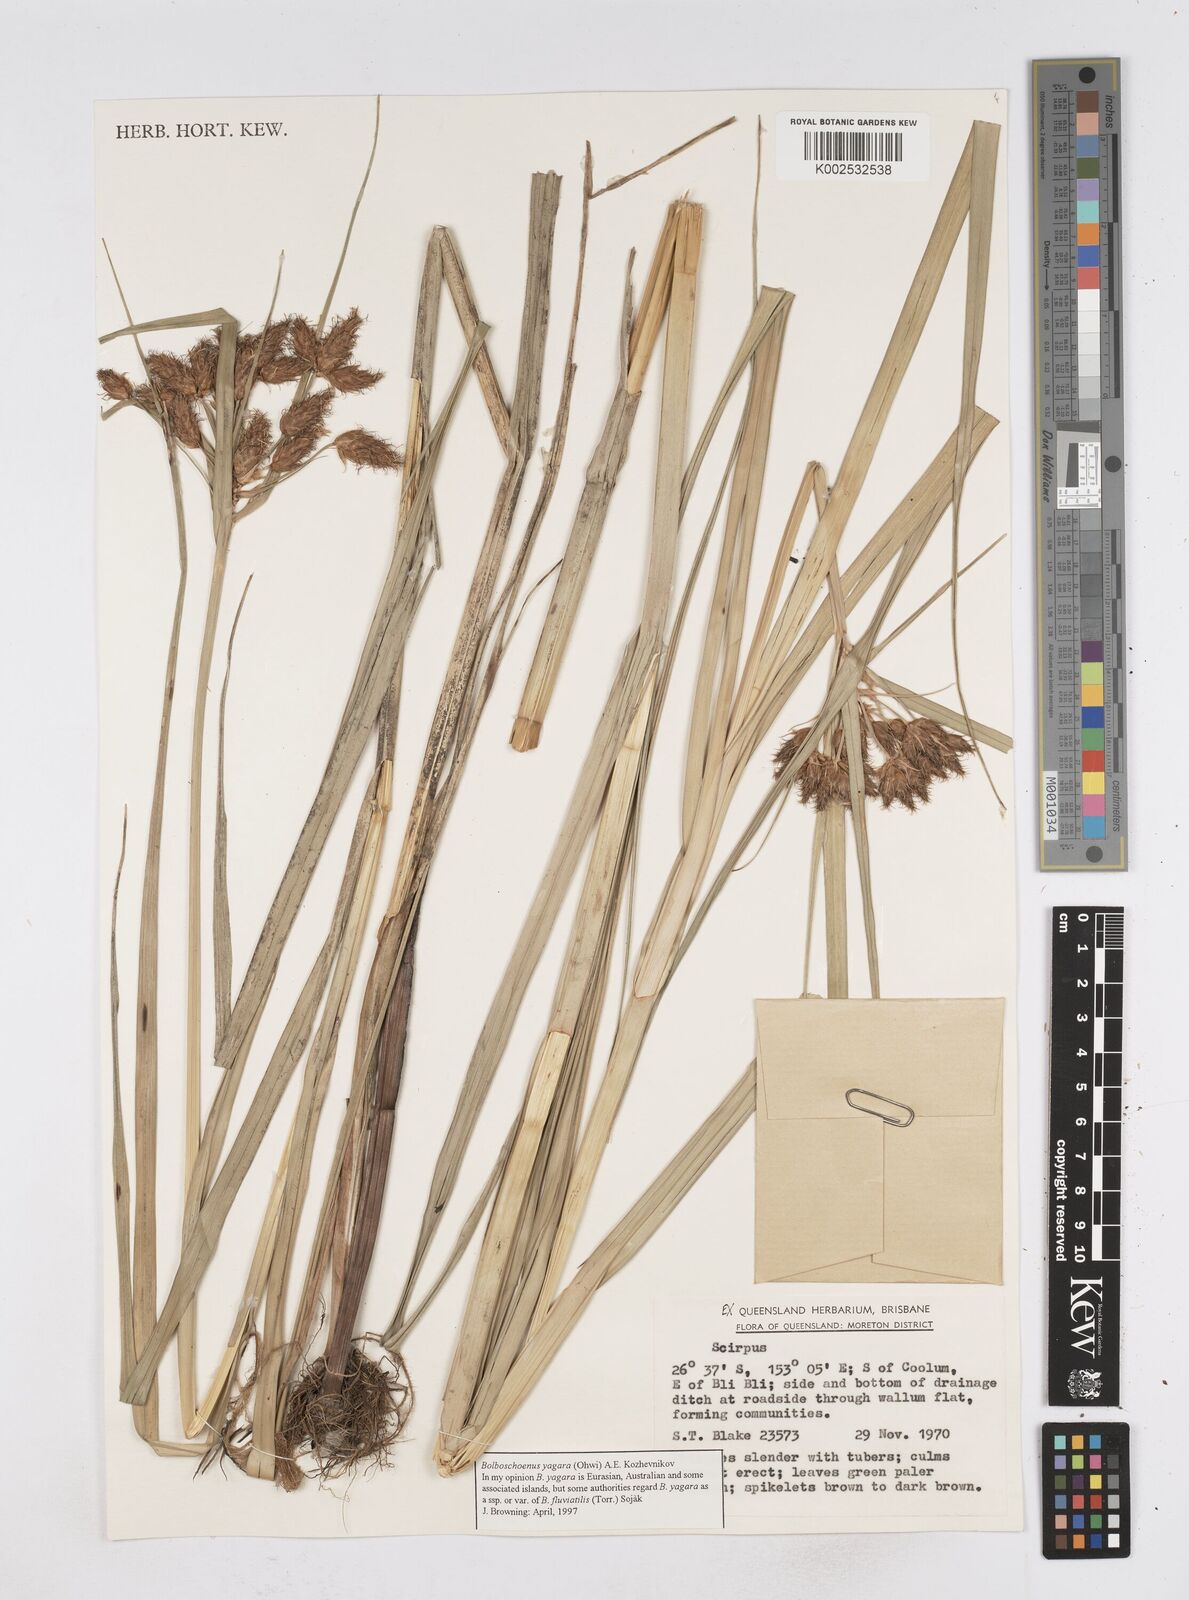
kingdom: Plantae
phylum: Tracheophyta
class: Liliopsida
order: Poales
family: Cyperaceae
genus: Bolboschoenus
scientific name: Bolboschoenus yagara
